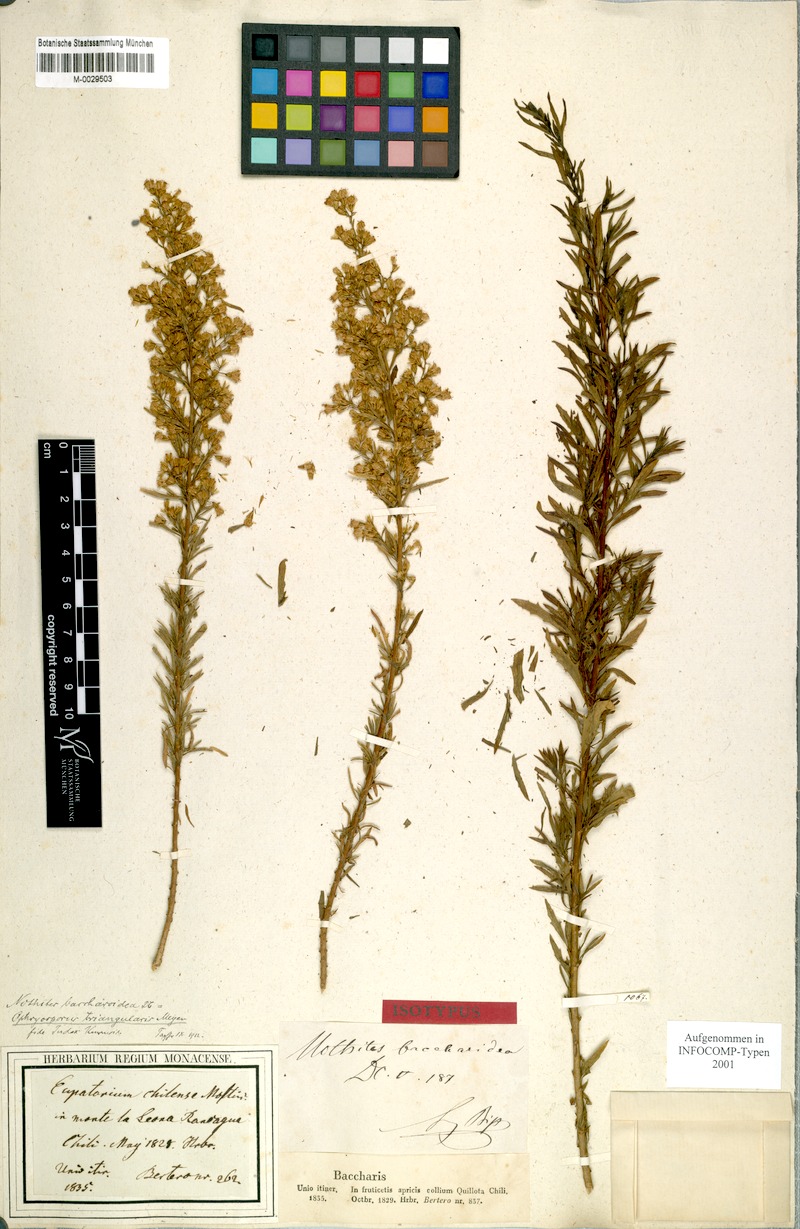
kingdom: Plantae
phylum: Tracheophyta
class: Magnoliopsida
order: Asterales
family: Asteraceae
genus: Ophryosporus
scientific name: Ophryosporus triangularis
